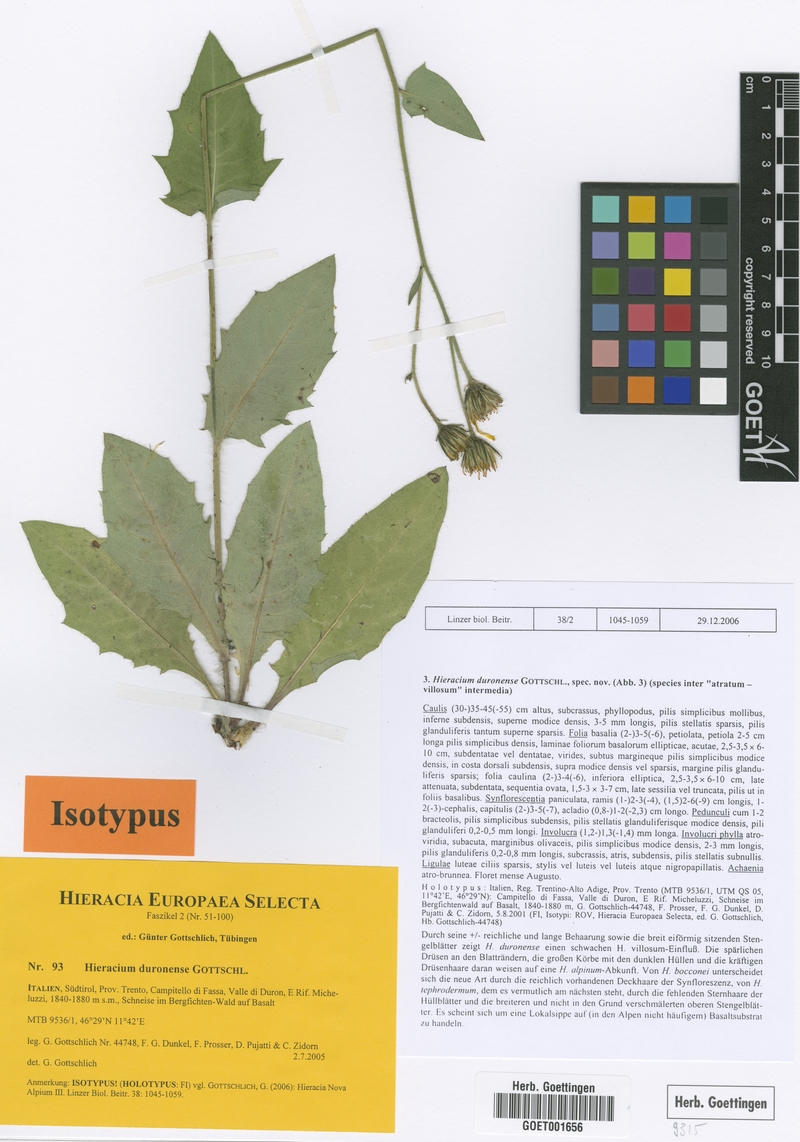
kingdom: Plantae
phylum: Tracheophyta
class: Magnoliopsida
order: Asterales
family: Asteraceae
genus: Hieracium
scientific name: Hieracium duronense
